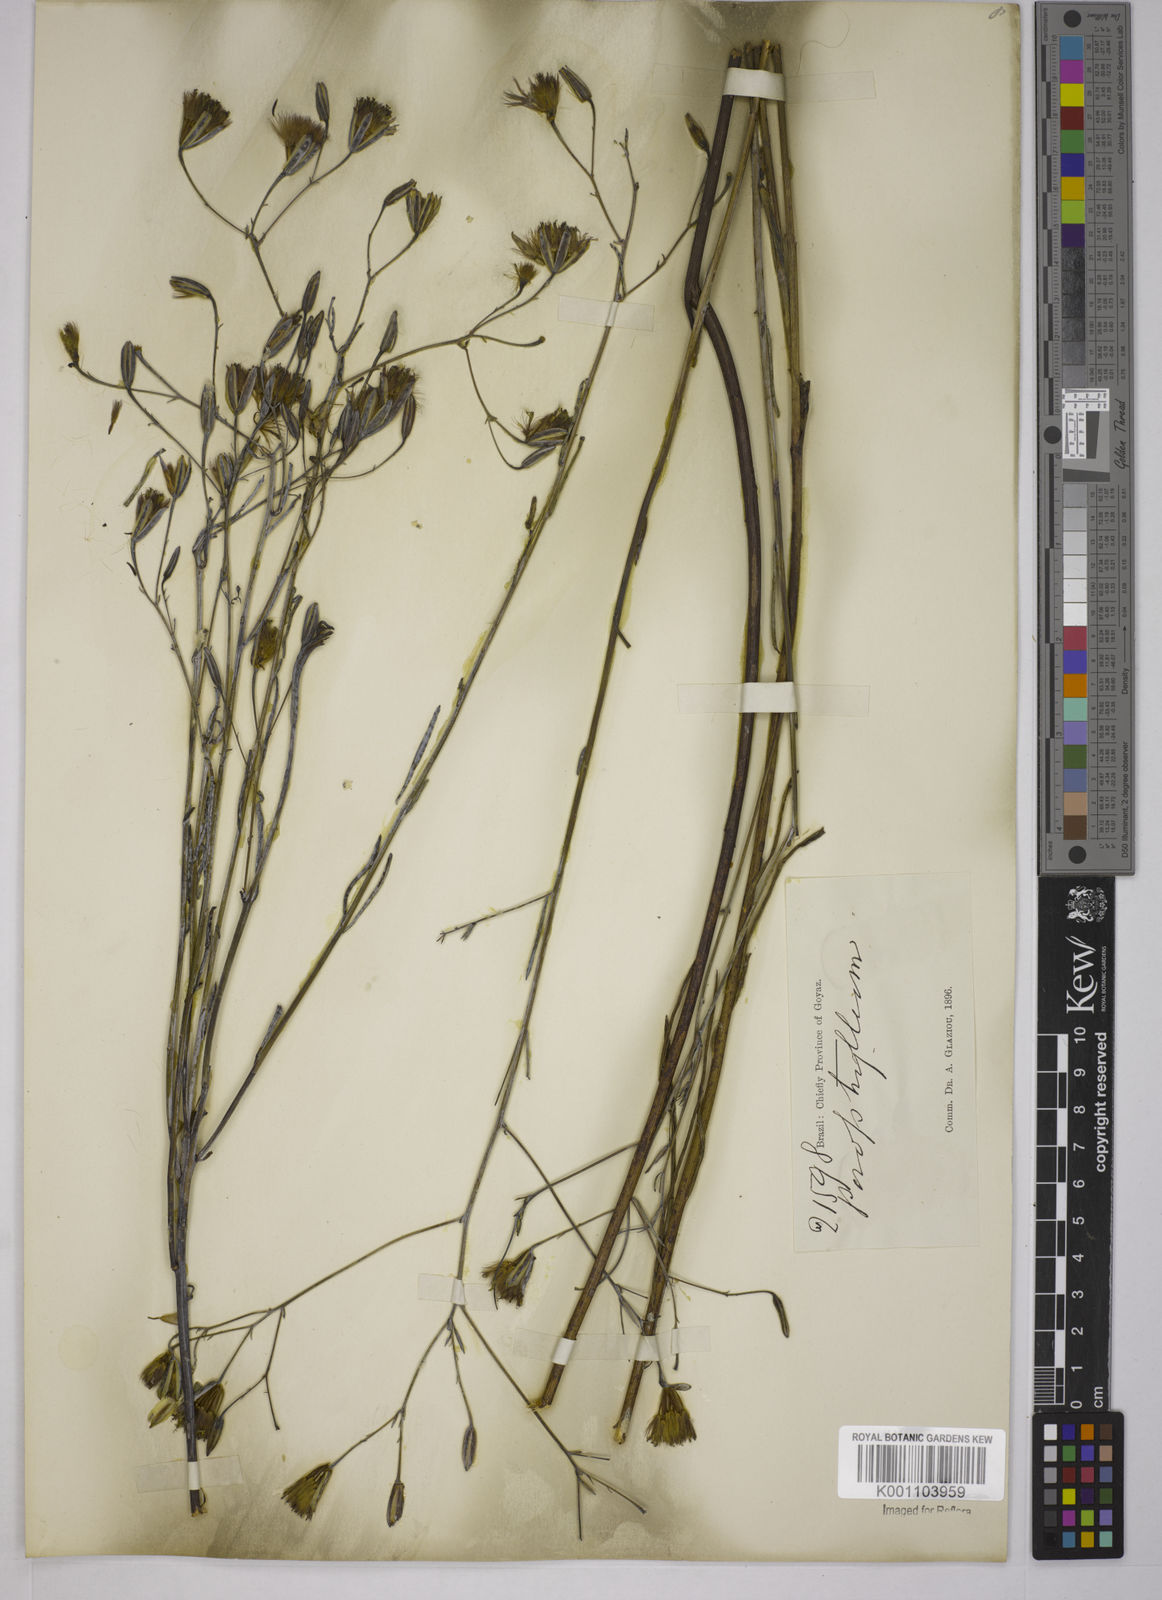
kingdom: Plantae
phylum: Tracheophyta
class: Magnoliopsida
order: Asterales
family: Asteraceae
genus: Porophyllum
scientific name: Porophyllum
